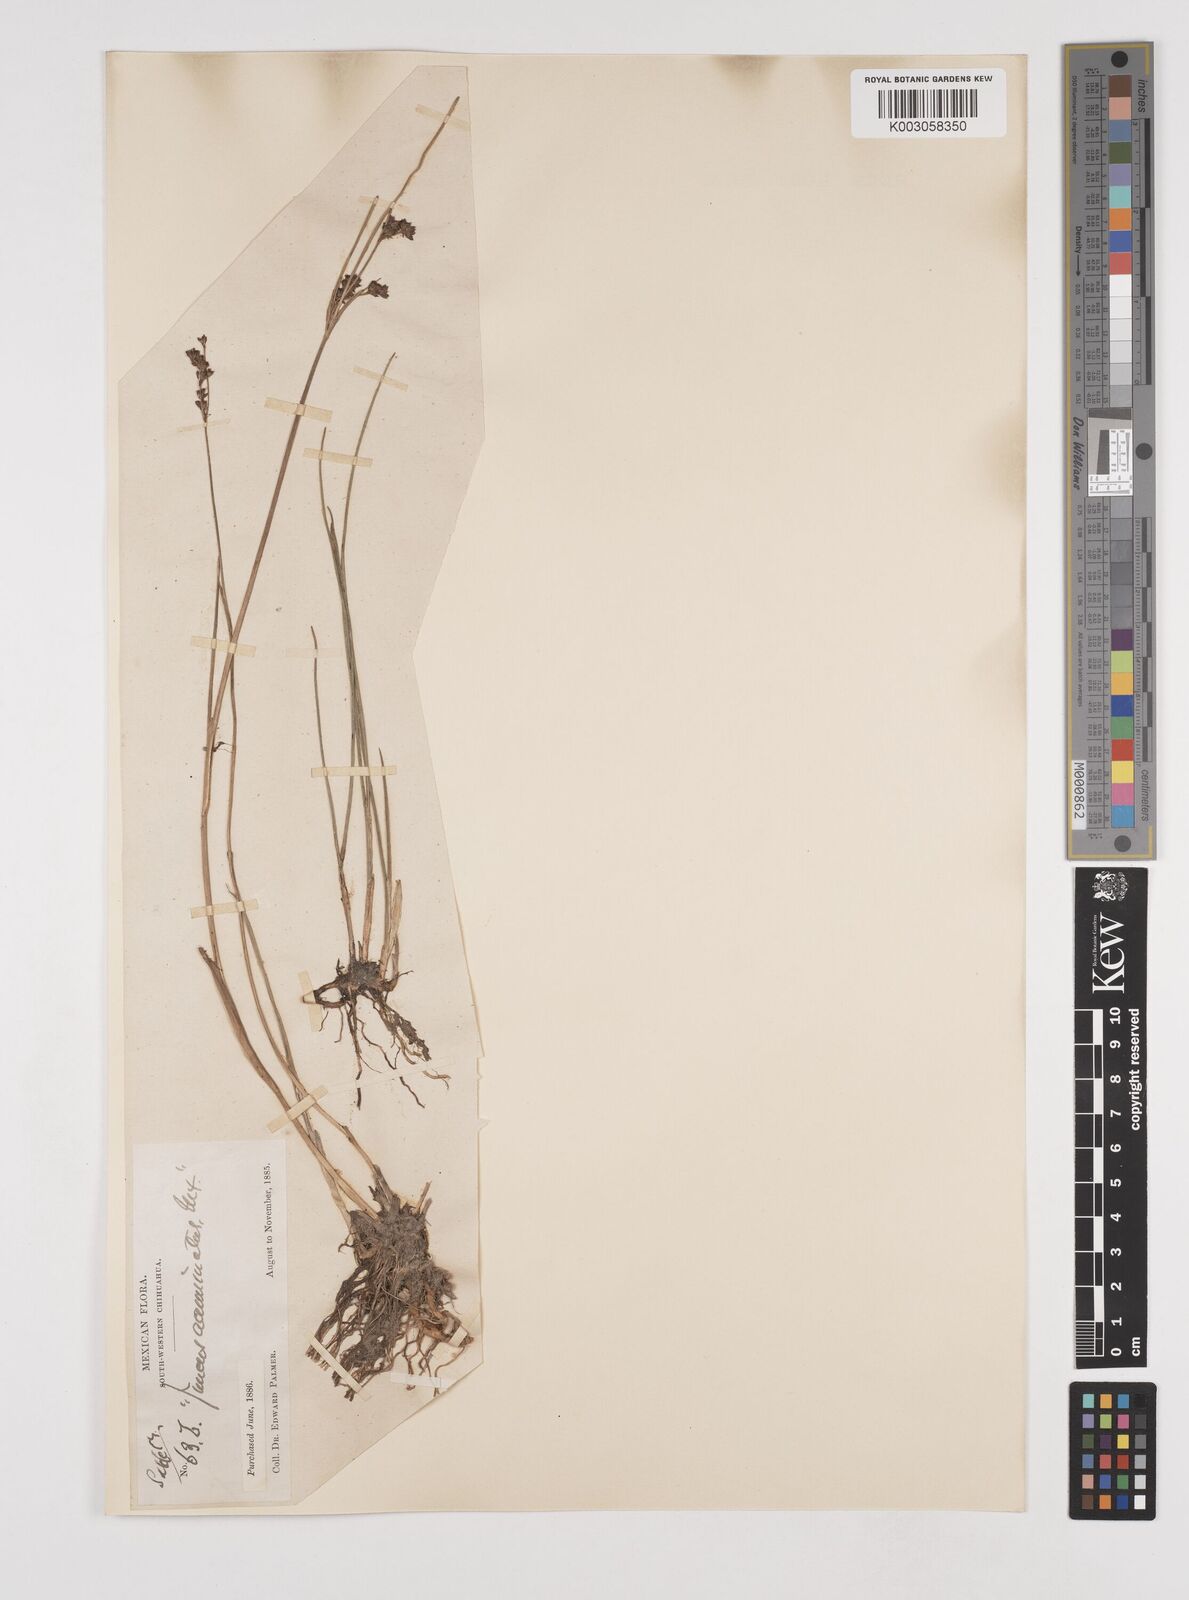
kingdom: Plantae
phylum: Tracheophyta
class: Liliopsida
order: Poales
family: Juncaceae
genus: Juncus
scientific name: Juncus acuminatus
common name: Knotty-leaved rush
